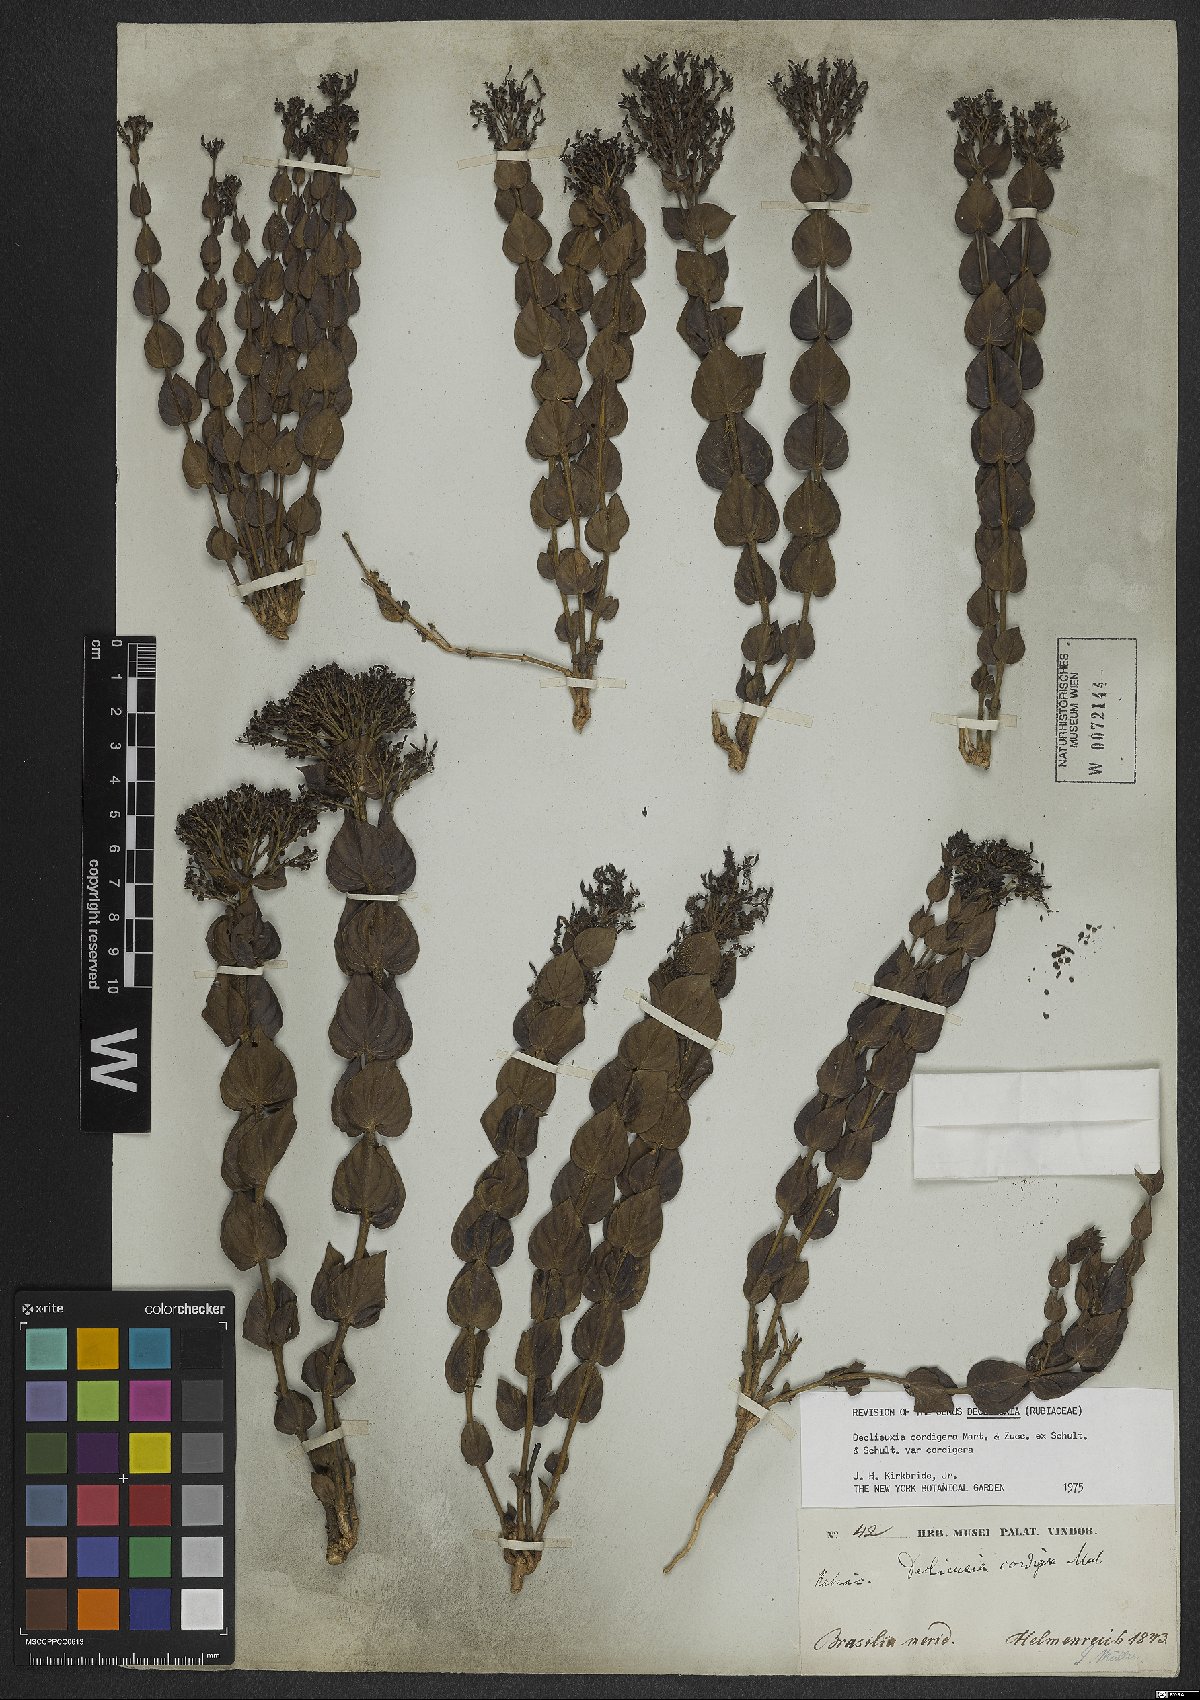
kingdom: Plantae
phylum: Tracheophyta
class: Magnoliopsida
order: Gentianales
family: Rubiaceae
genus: Declieuxia
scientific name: Declieuxia cordigera
